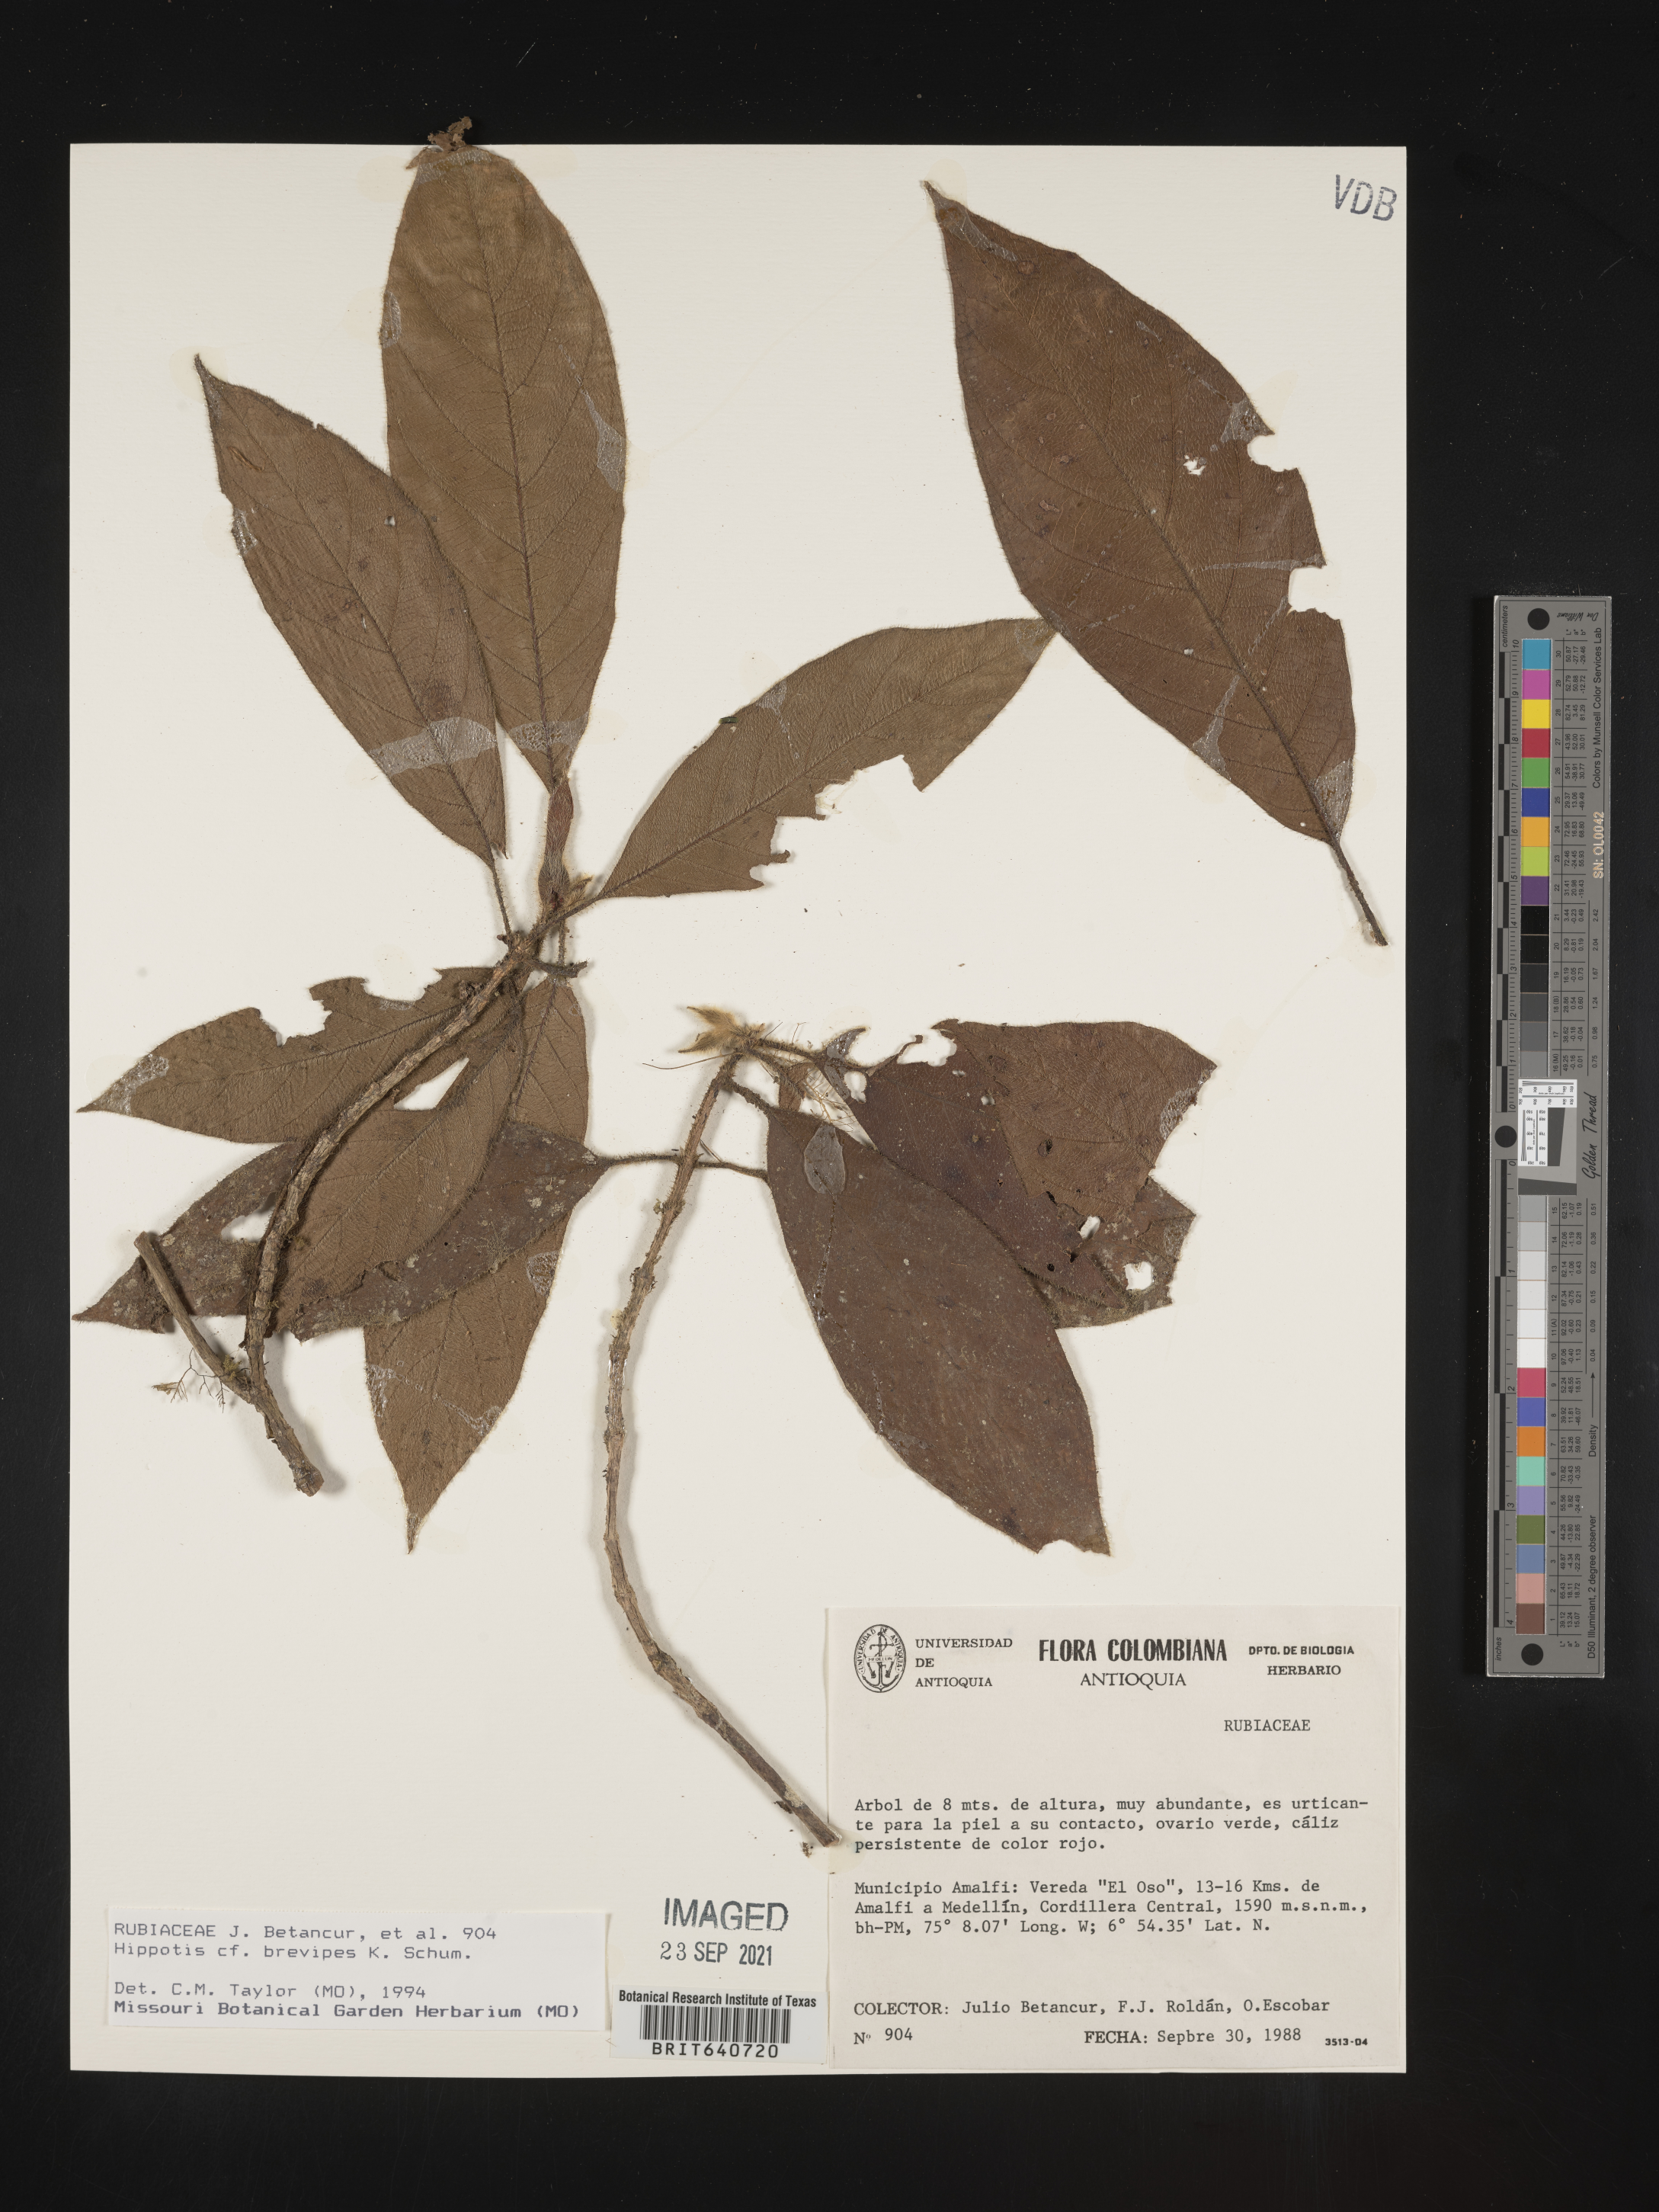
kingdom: Plantae
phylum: Tracheophyta
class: Magnoliopsida
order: Gentianales
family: Rubiaceae
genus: Hippotis
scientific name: Hippotis
